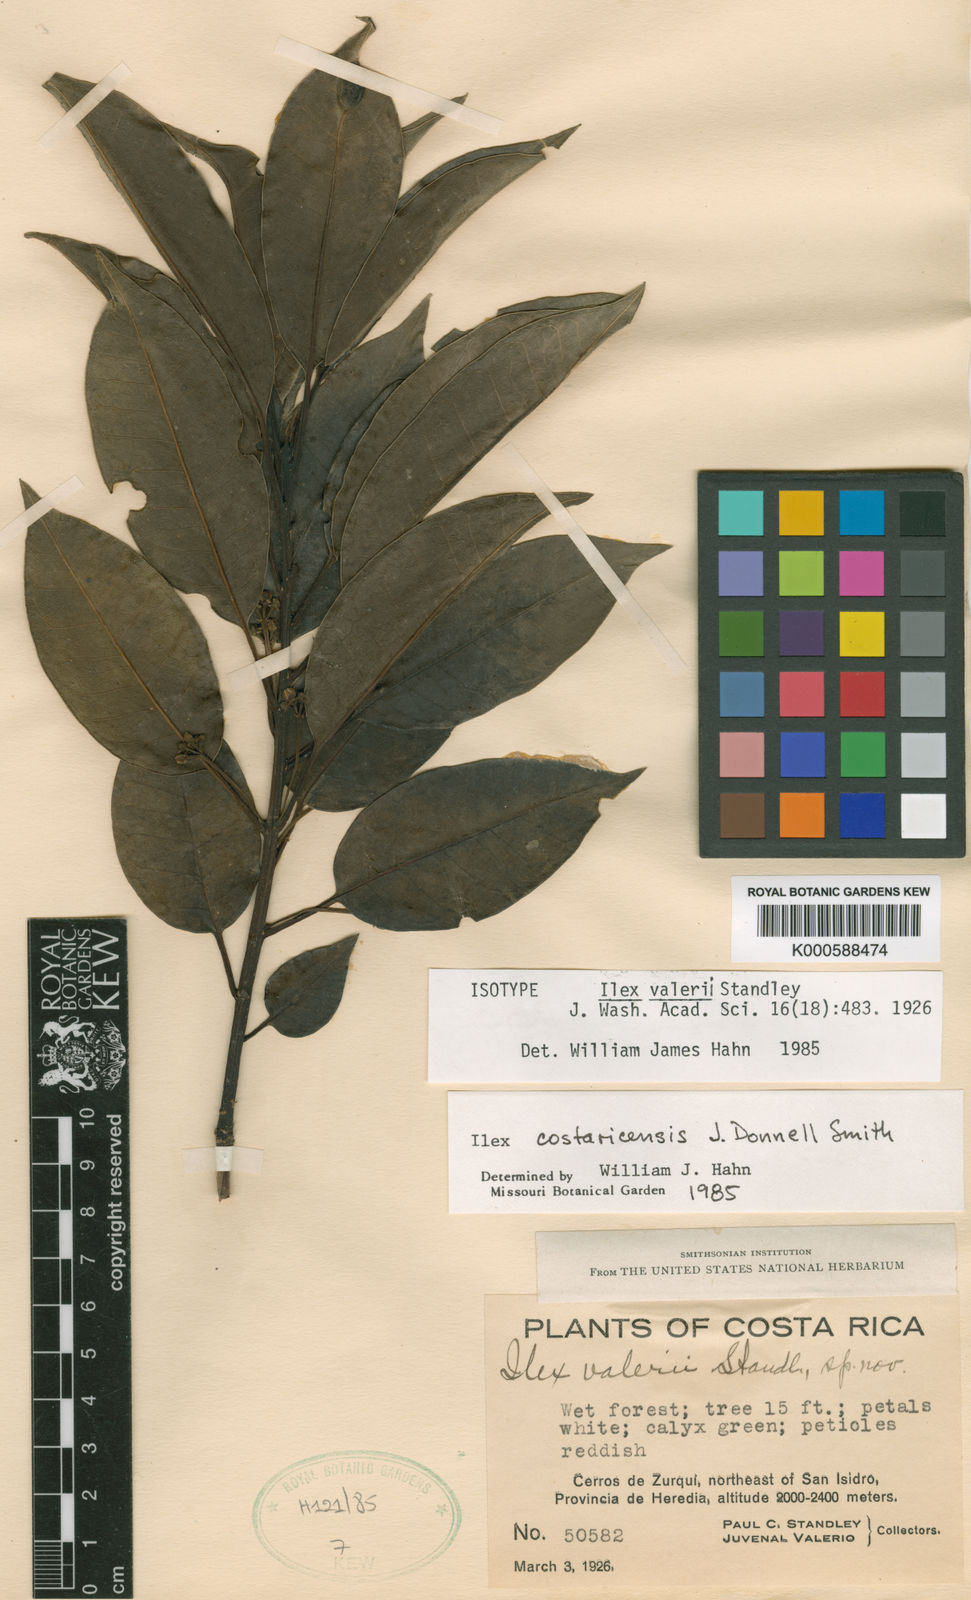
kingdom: Plantae
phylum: Tracheophyta
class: Magnoliopsida
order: Aquifoliales
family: Aquifoliaceae
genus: Ilex
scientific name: Ilex costaricensis
